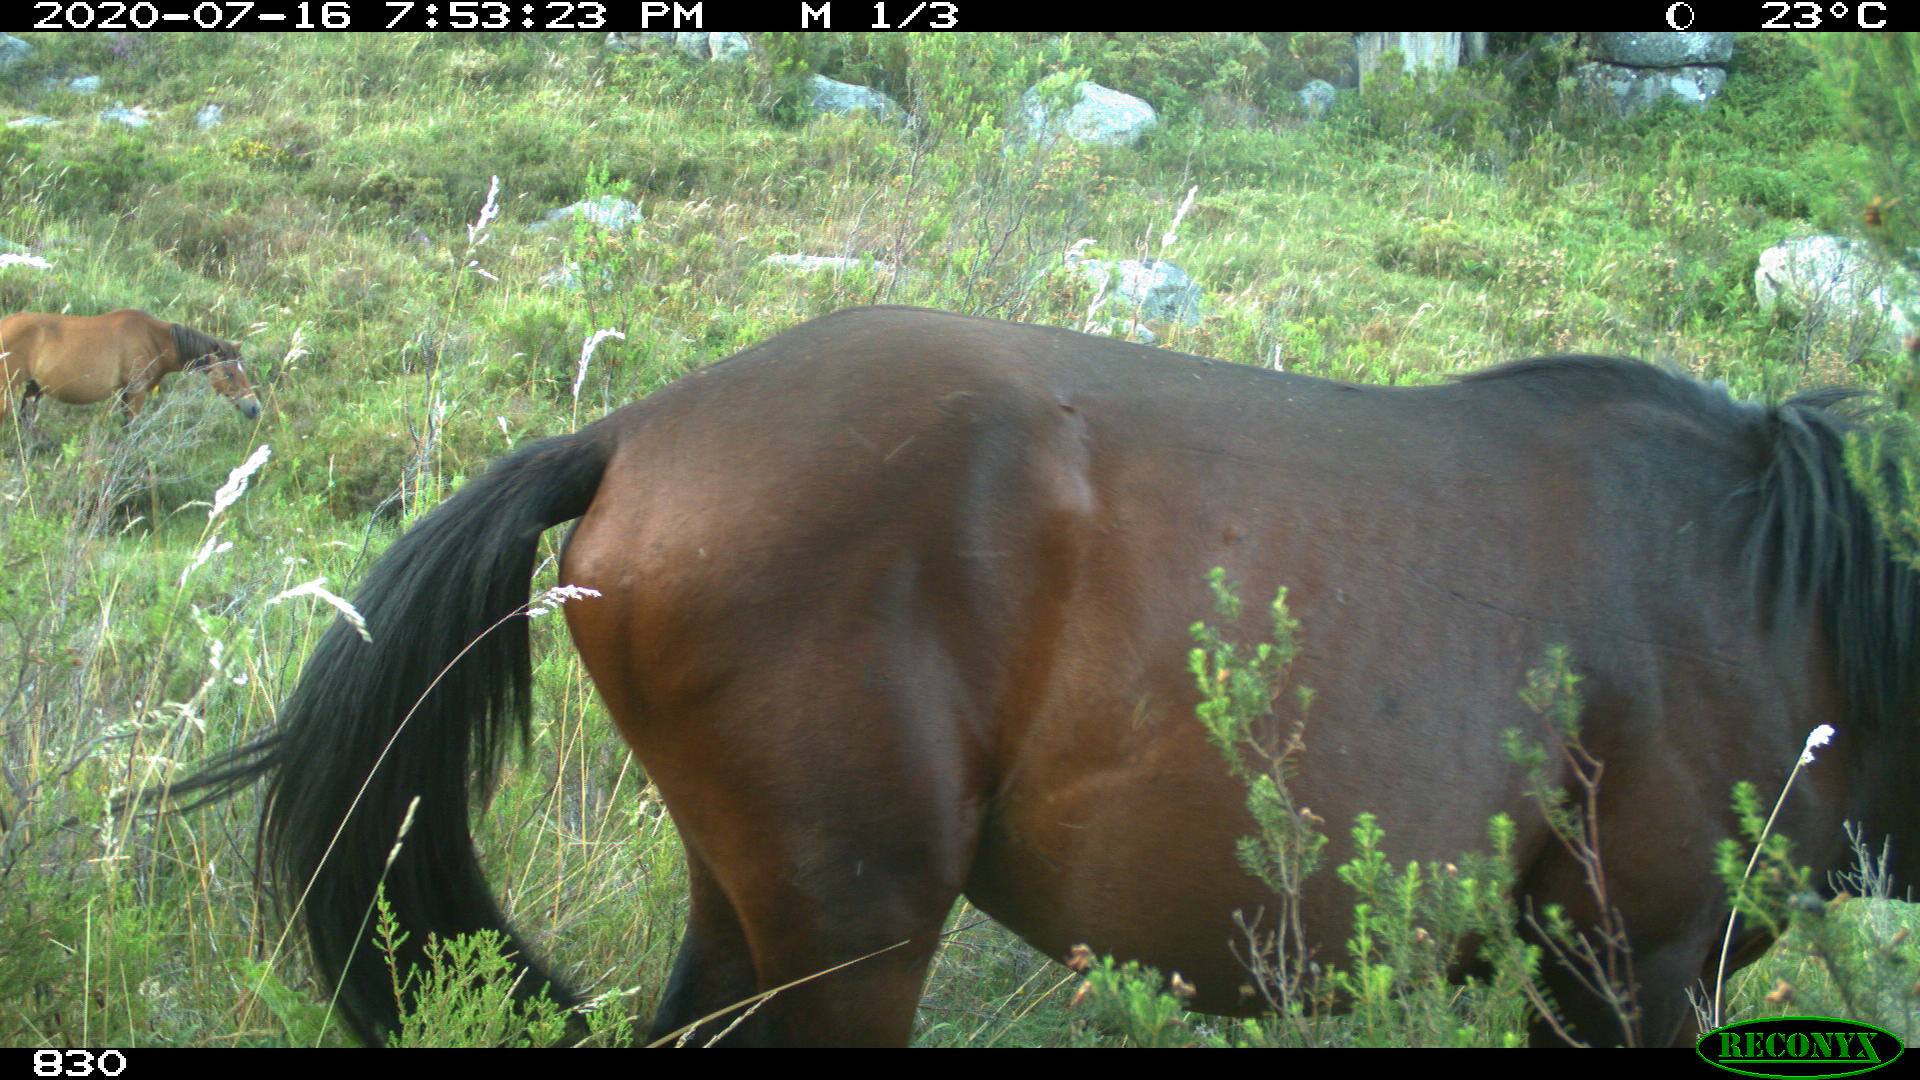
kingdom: Animalia
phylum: Chordata
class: Mammalia
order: Perissodactyla
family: Equidae
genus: Equus
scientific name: Equus caballus
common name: Horse
